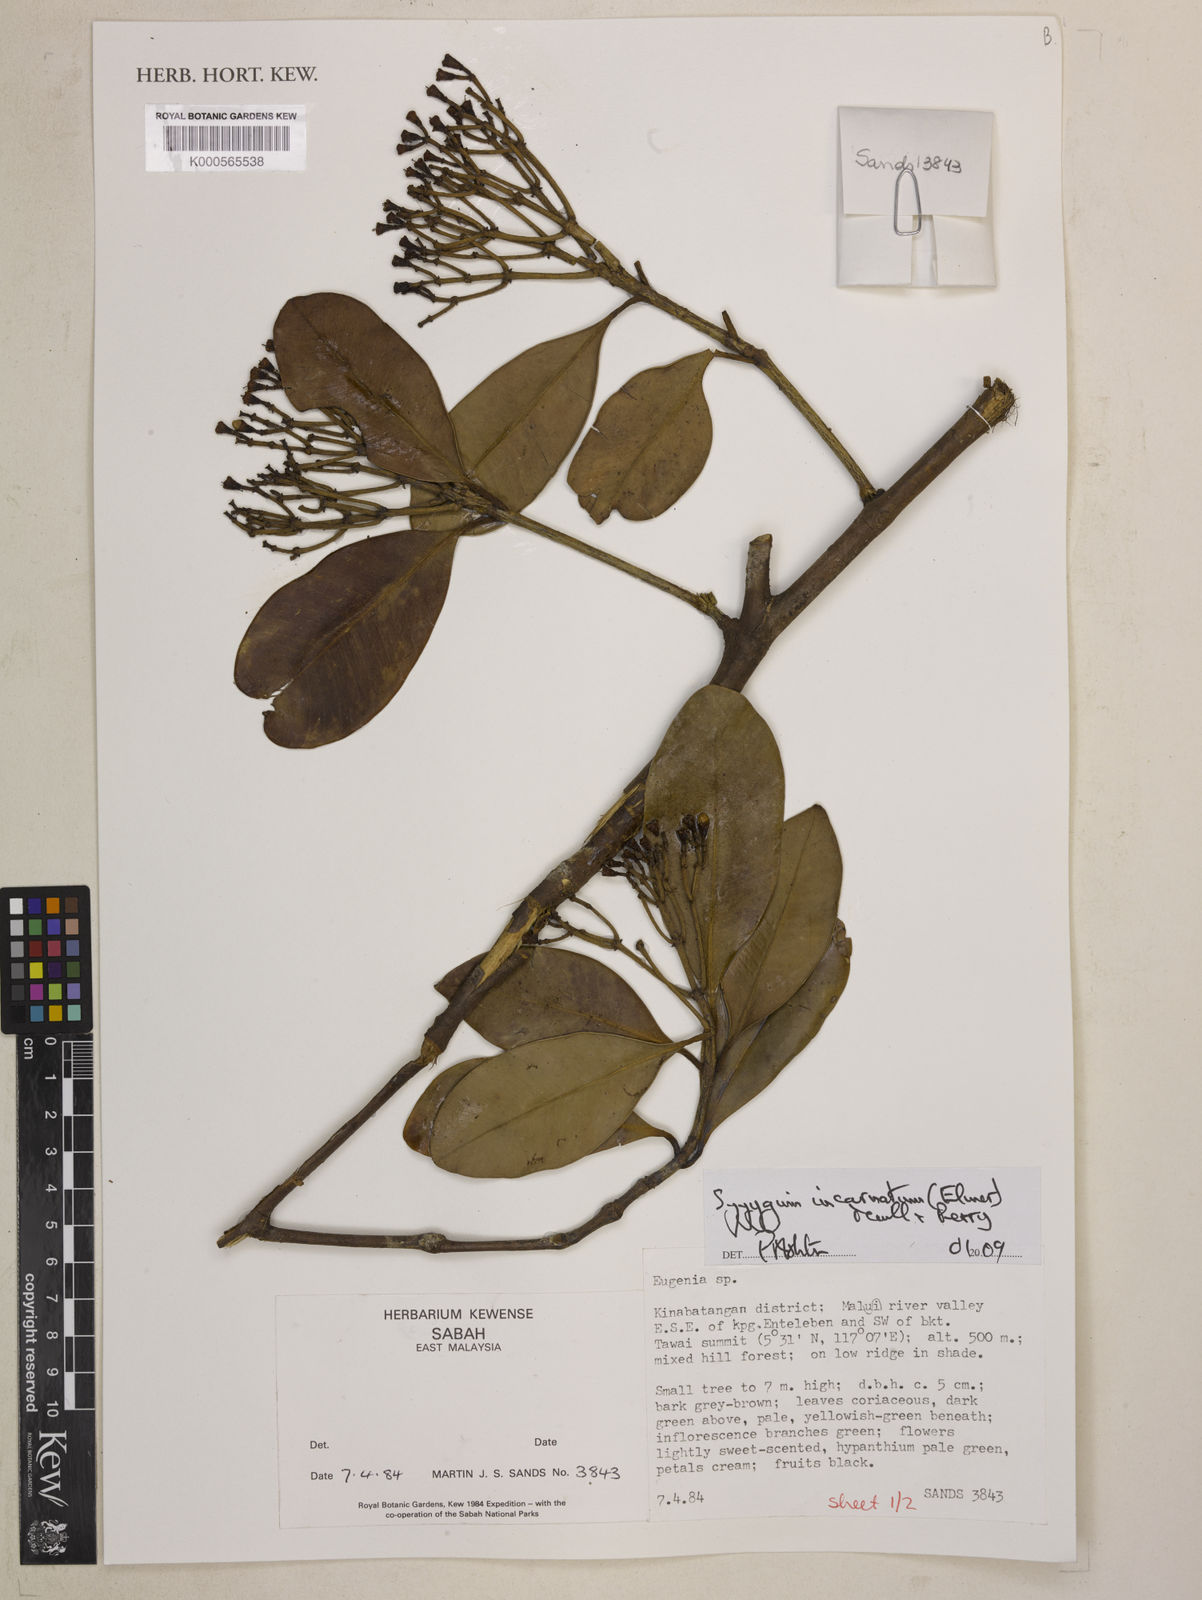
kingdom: Plantae
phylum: Tracheophyta
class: Magnoliopsida
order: Myrtales
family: Myrtaceae
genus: Syzygium
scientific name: Syzygium incarnatum
